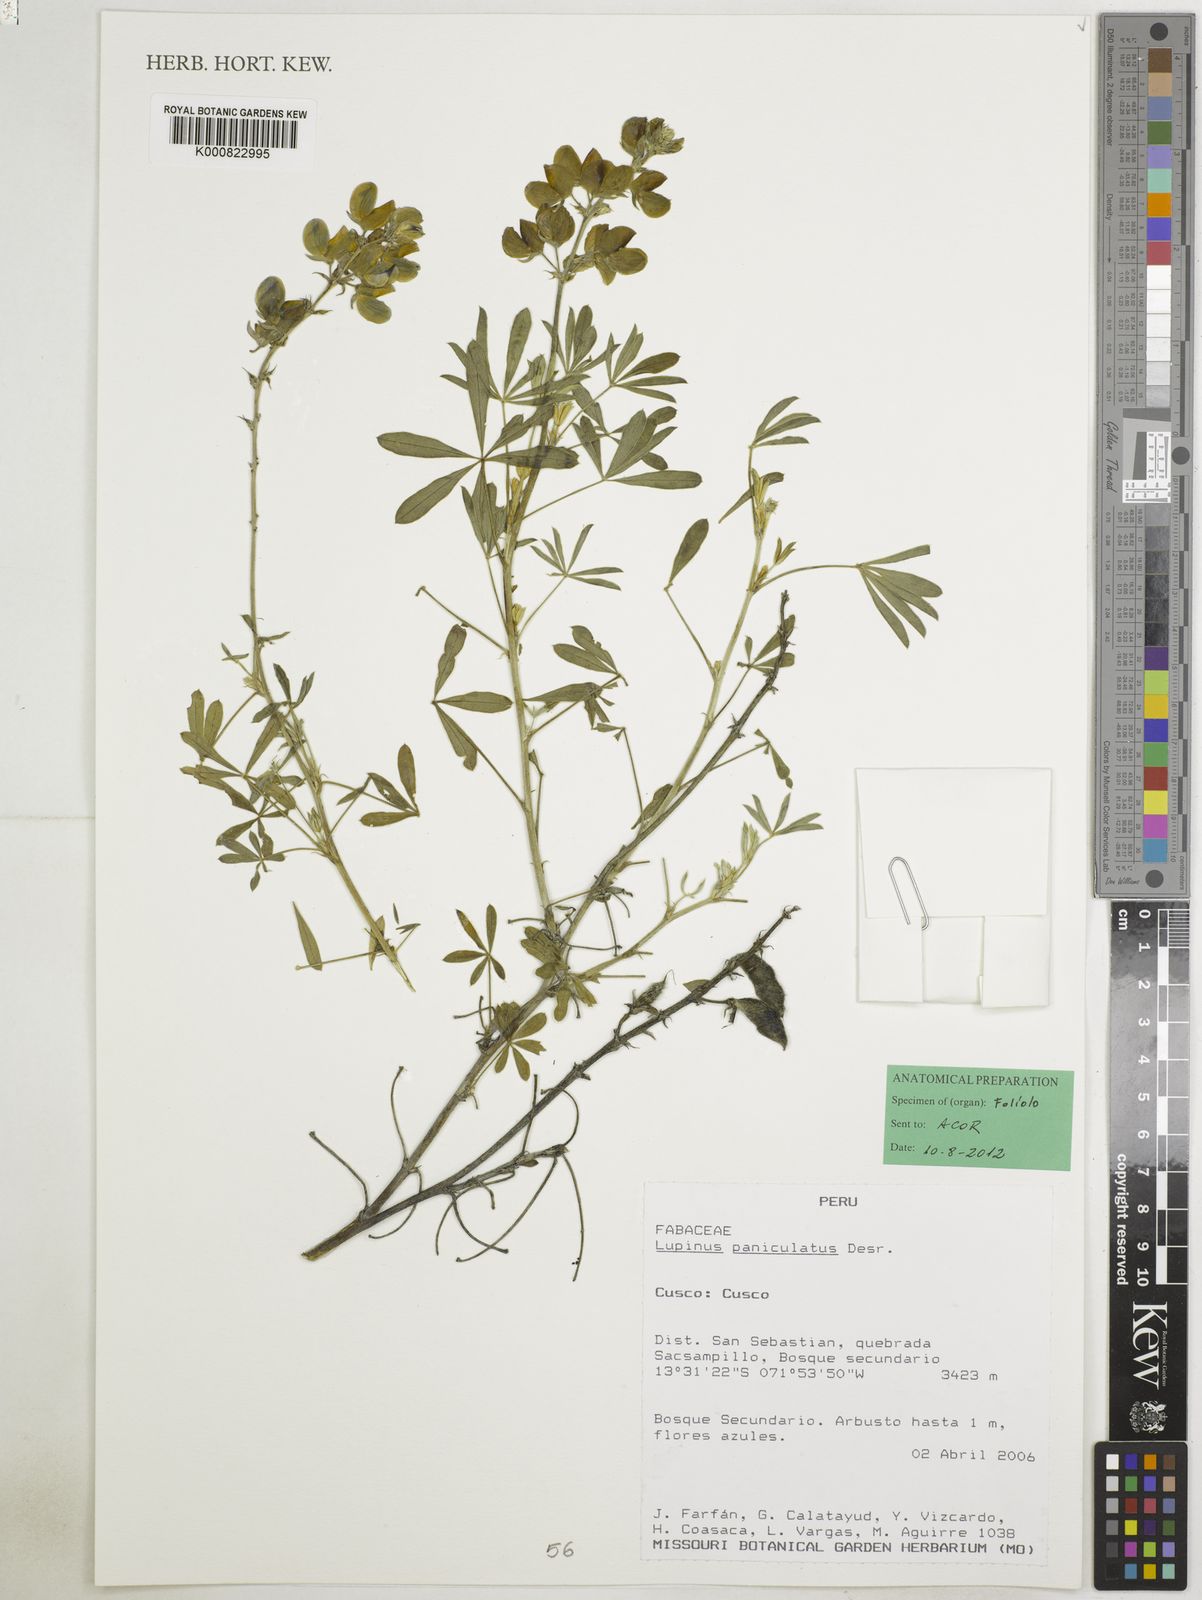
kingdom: Plantae
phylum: Tracheophyta
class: Magnoliopsida
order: Fabales
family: Fabaceae
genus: Lupinus
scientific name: Lupinus paniculatus
